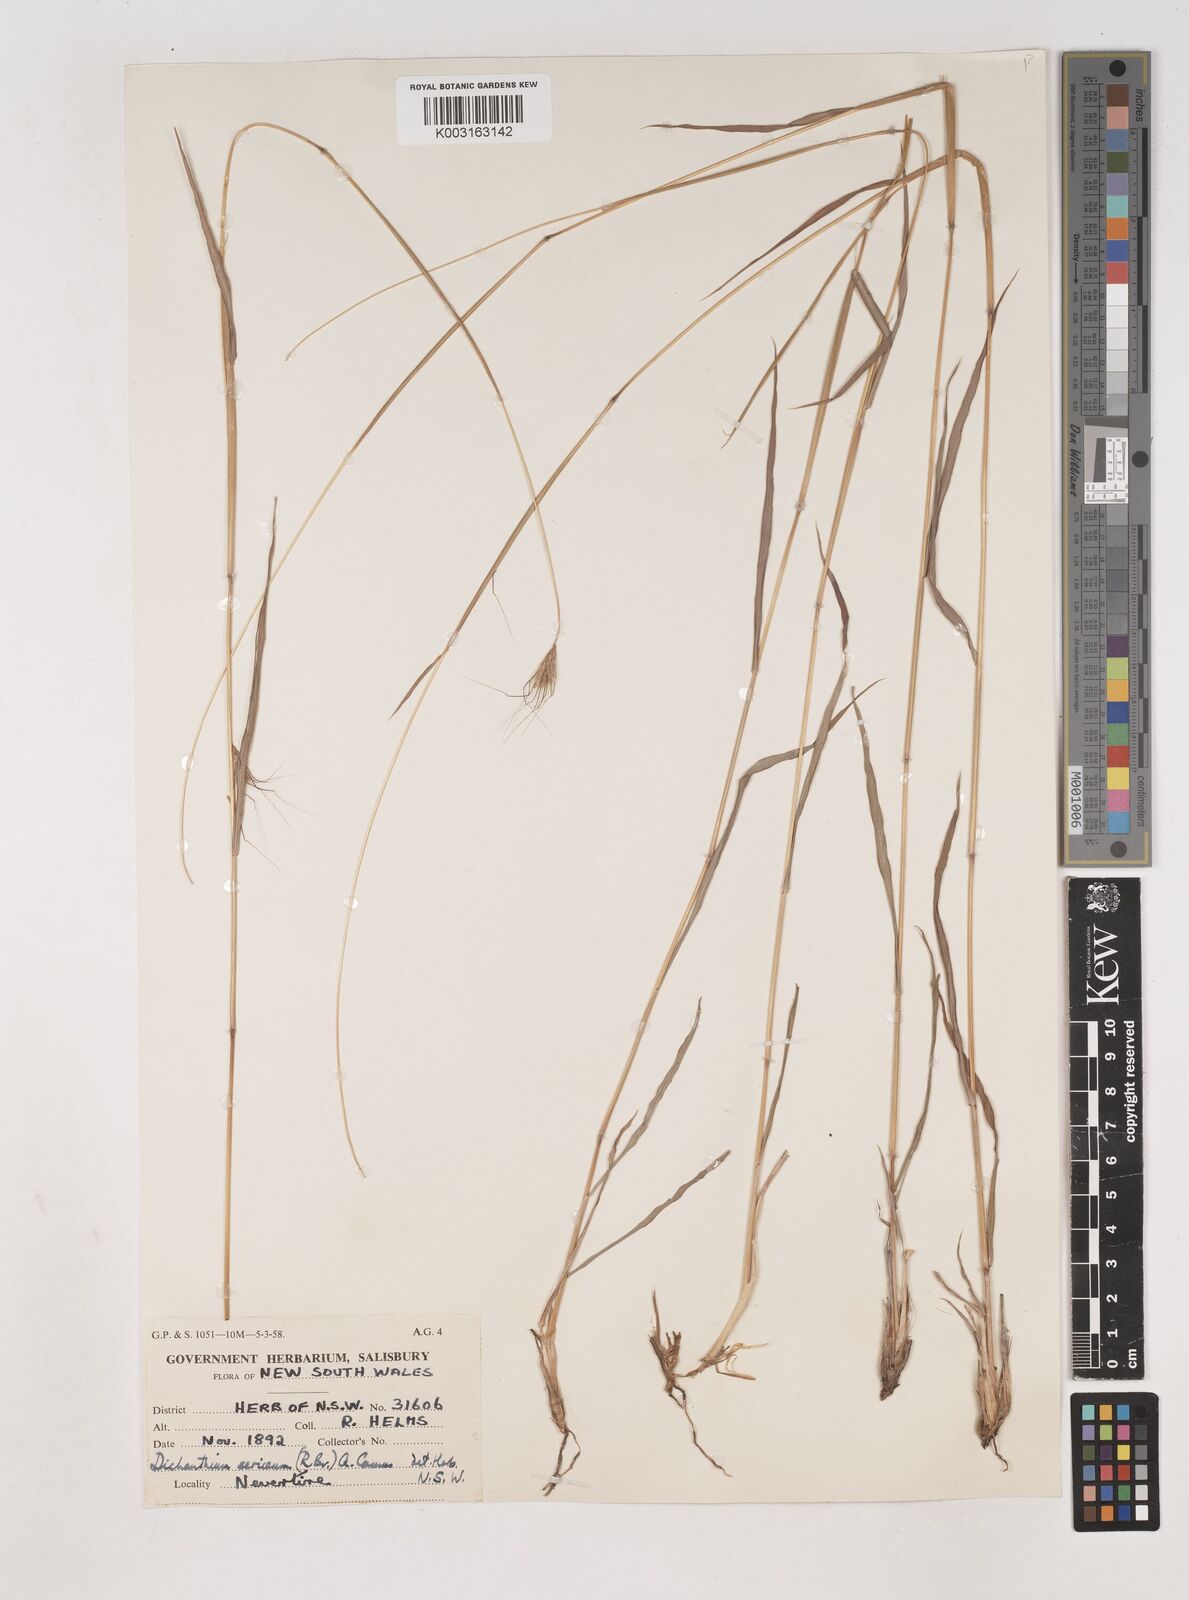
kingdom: Plantae
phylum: Tracheophyta
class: Liliopsida
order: Poales
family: Poaceae
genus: Dichanthium
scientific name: Dichanthium sericeum
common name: Silky bluestem
